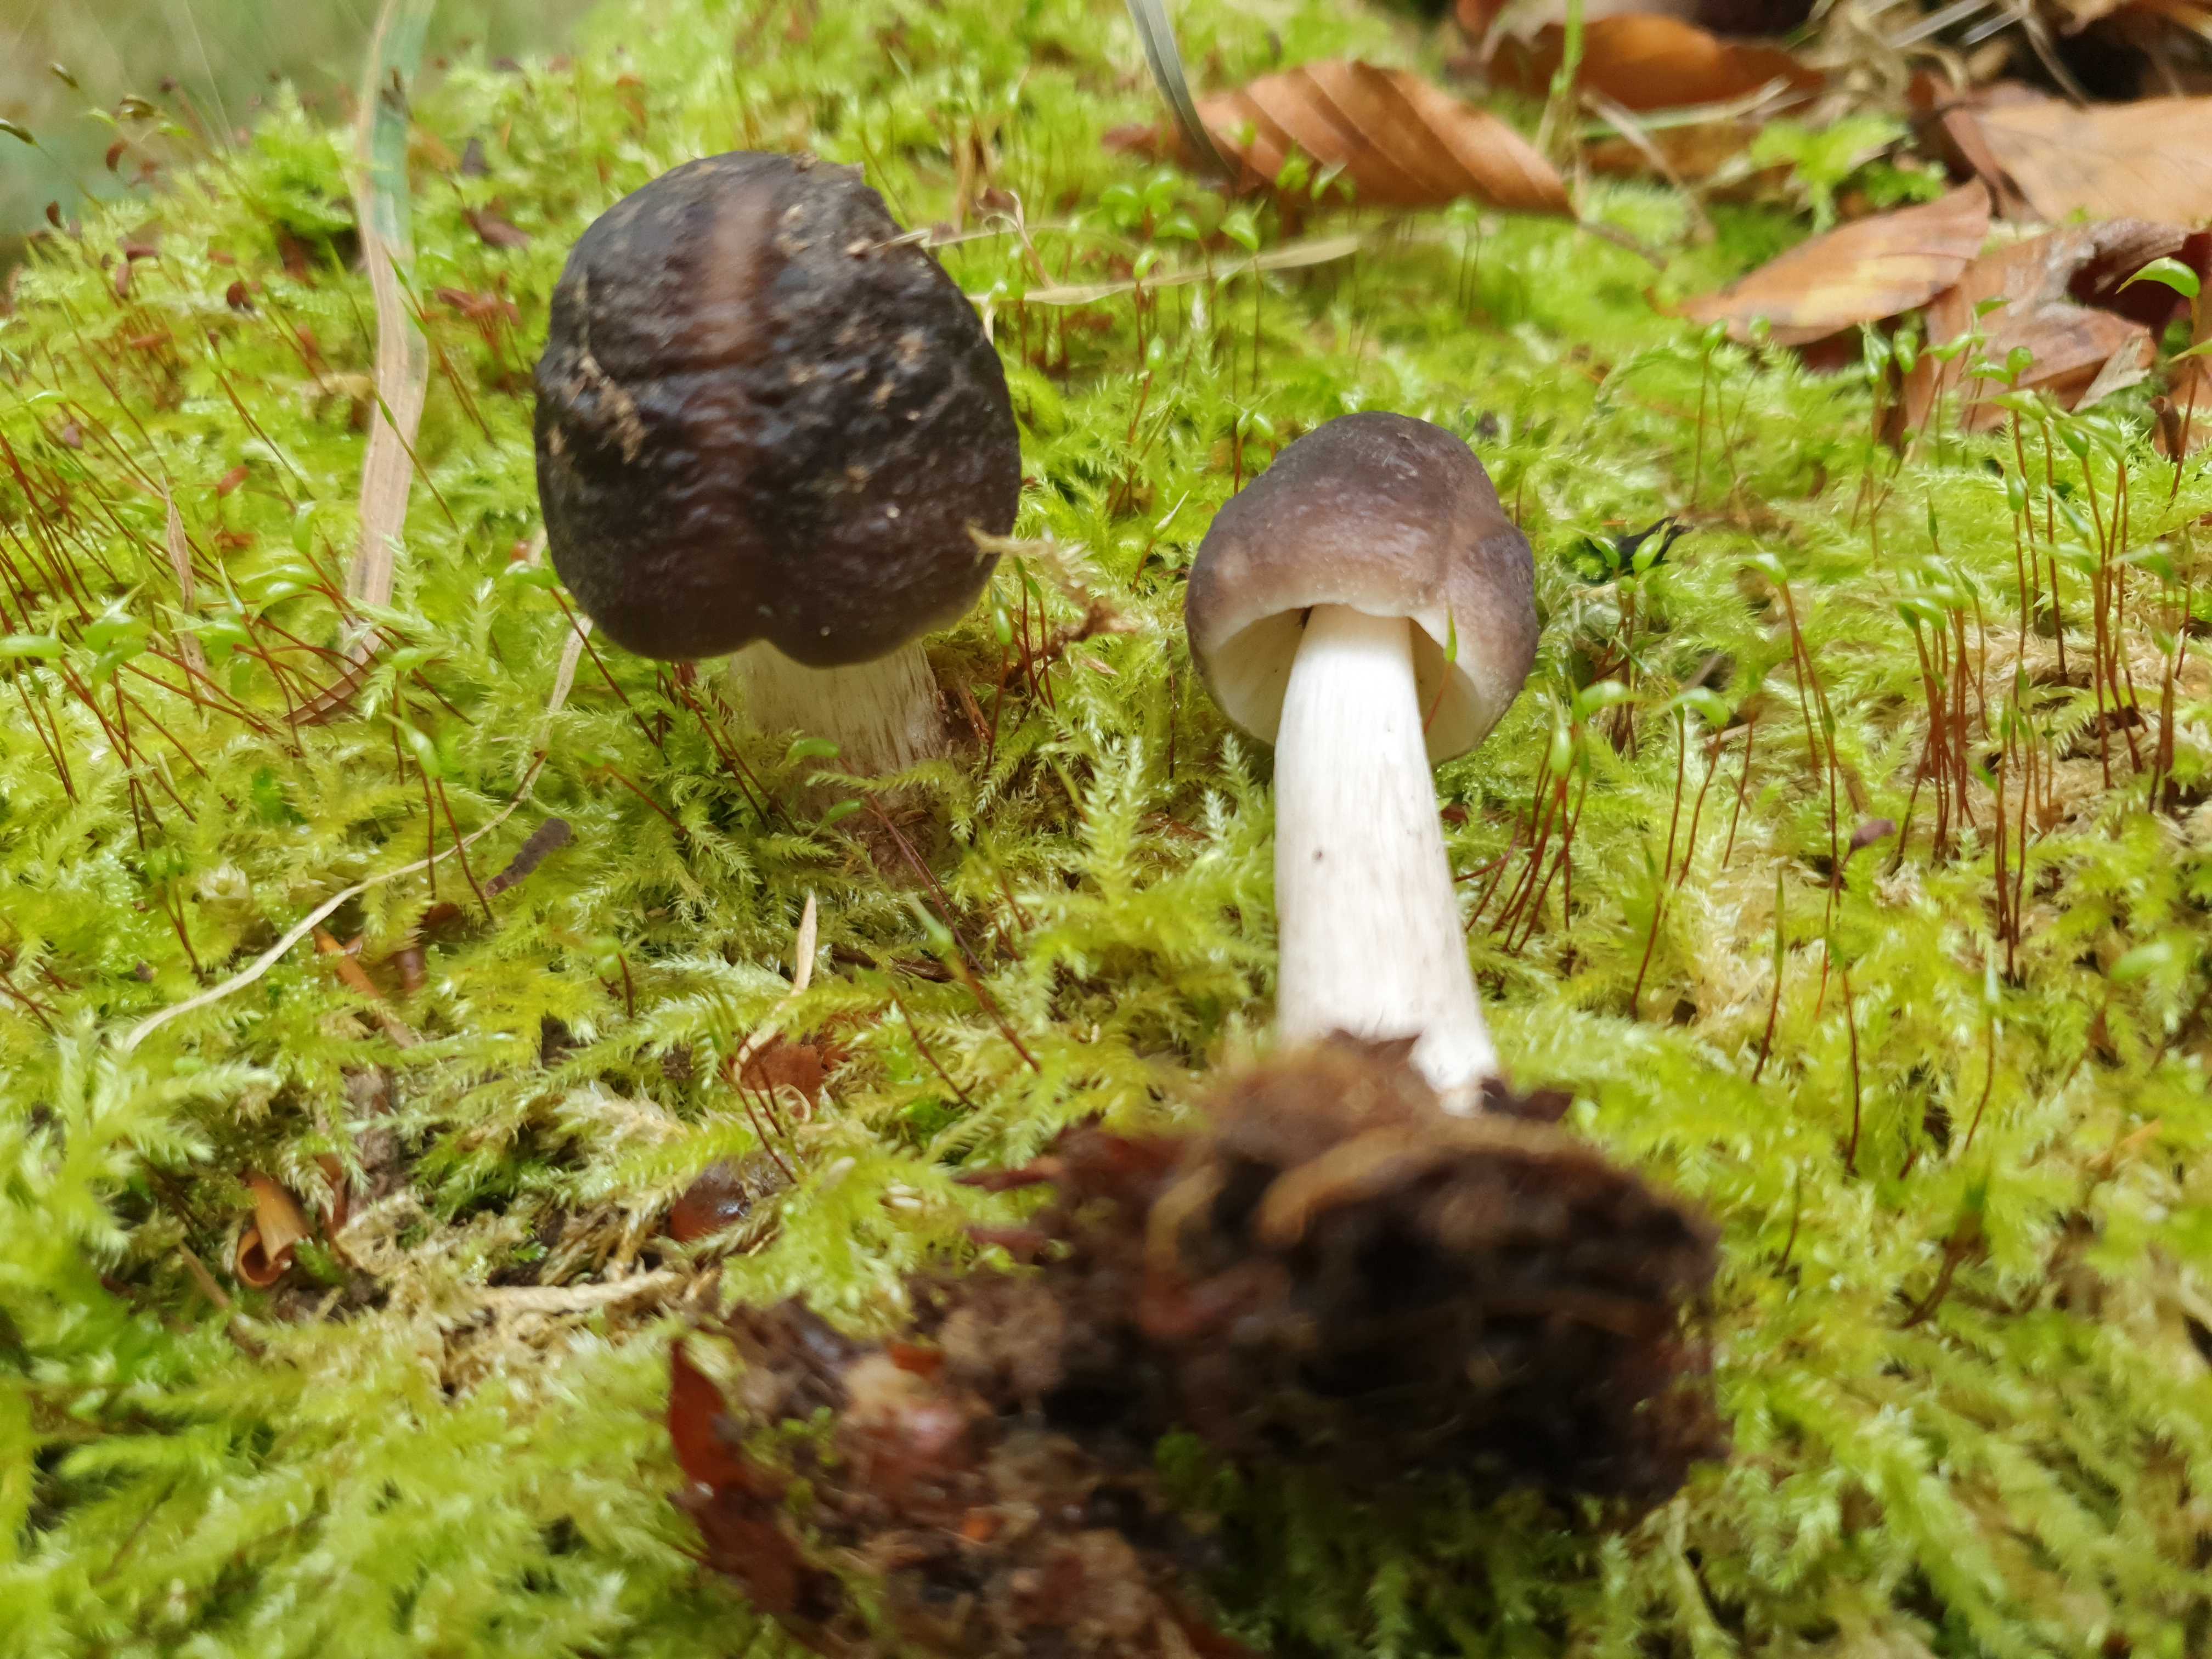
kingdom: Fungi
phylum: Basidiomycota
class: Agaricomycetes
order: Agaricales
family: Pluteaceae
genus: Pluteus
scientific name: Pluteus cervinus
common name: sodfarvet skærmhat
